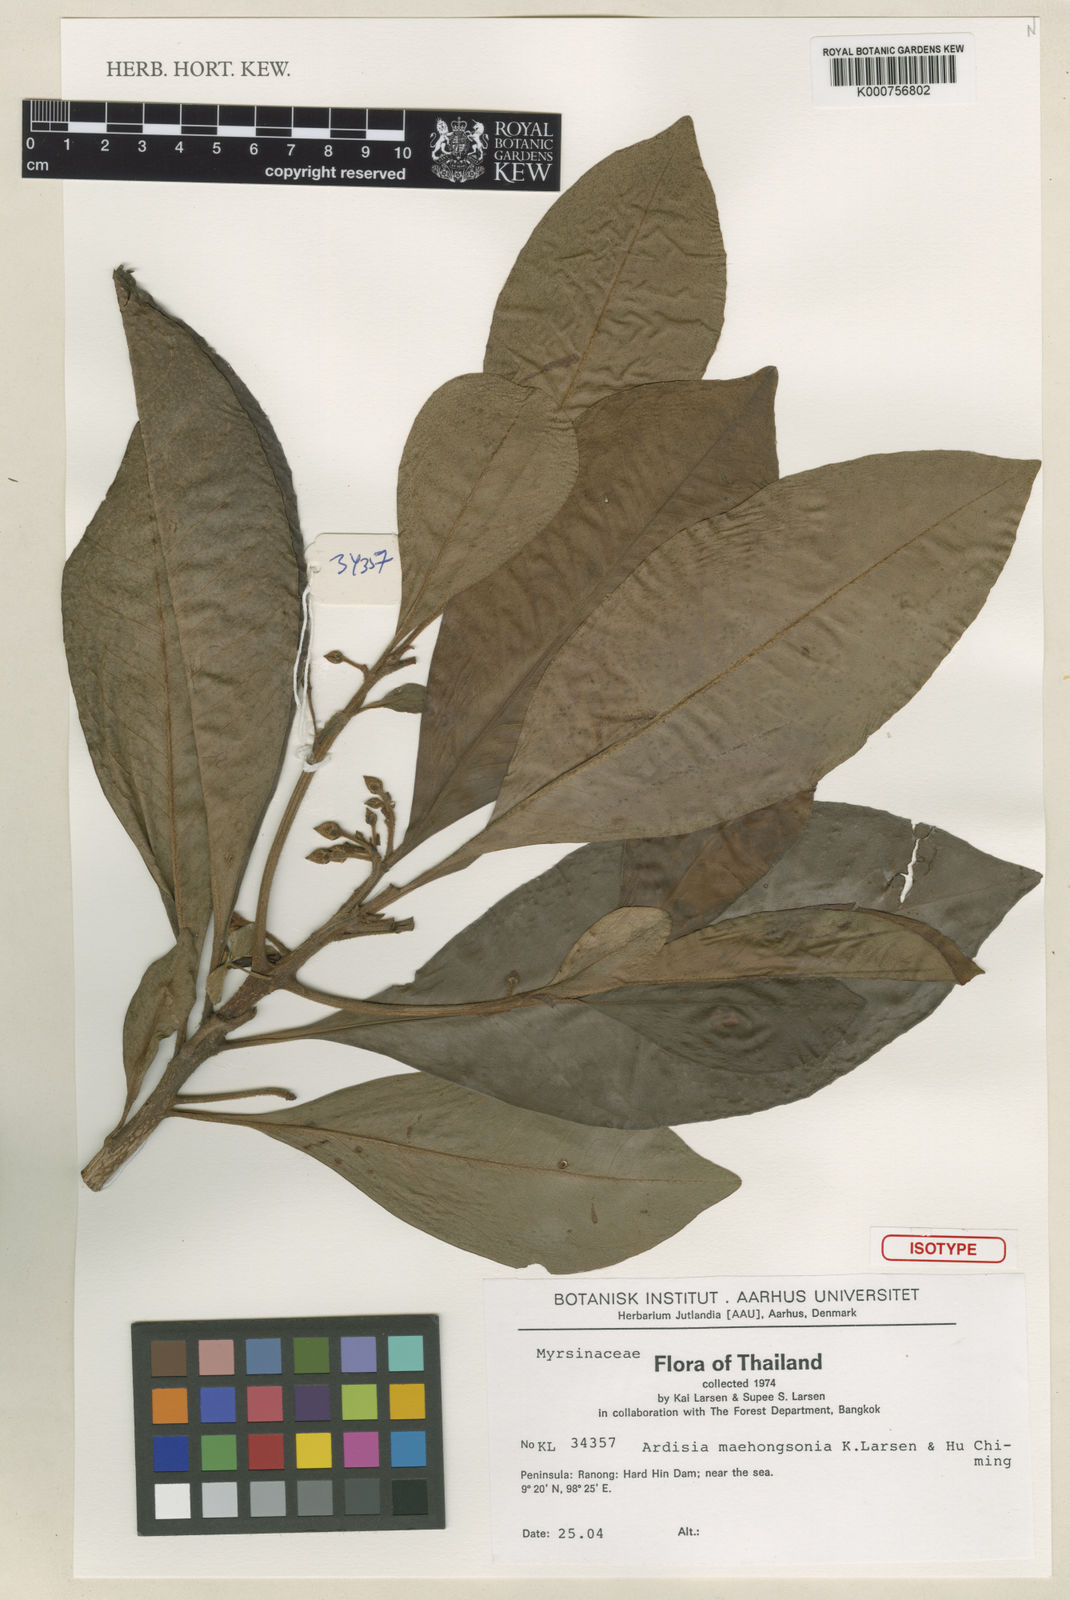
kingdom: Plantae
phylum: Tracheophyta
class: Magnoliopsida
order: Ericales
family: Primulaceae
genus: Ardisia
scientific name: Ardisia maehongsonia
